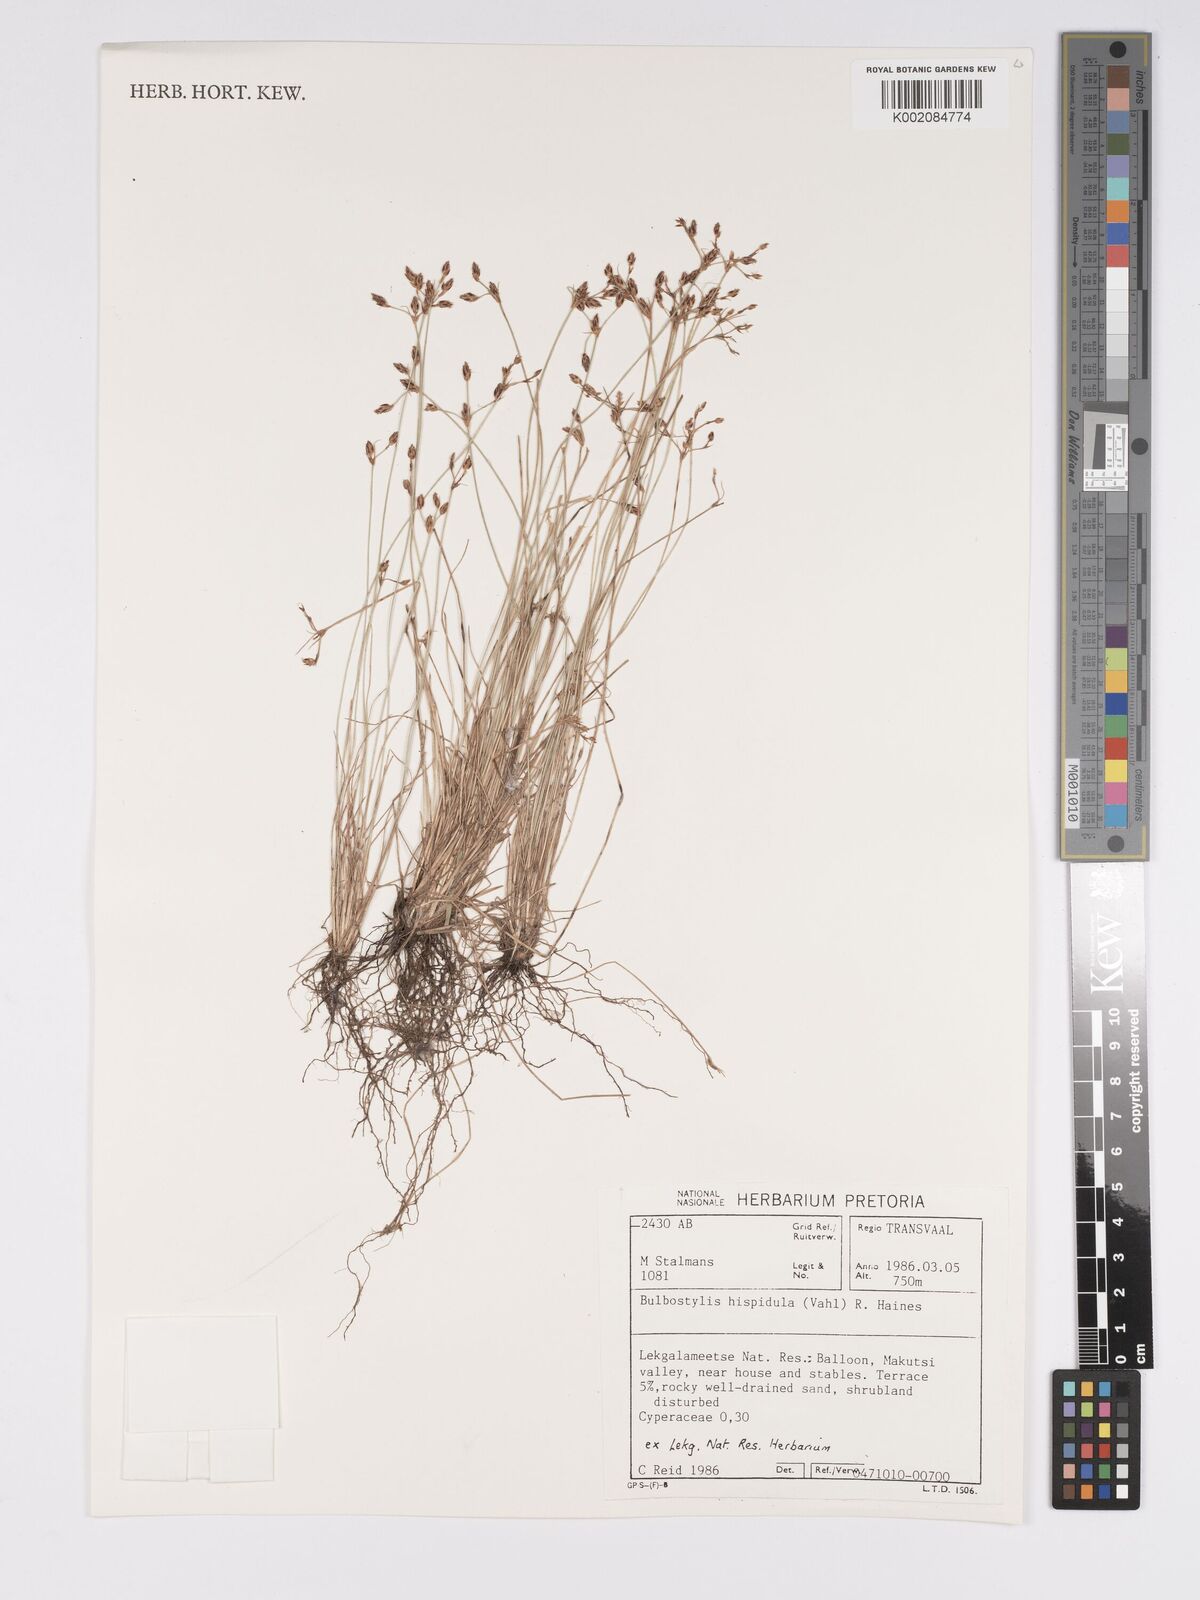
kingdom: Plantae
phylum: Tracheophyta
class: Liliopsida
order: Poales
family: Cyperaceae
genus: Bulbostylis
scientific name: Bulbostylis hispidula
